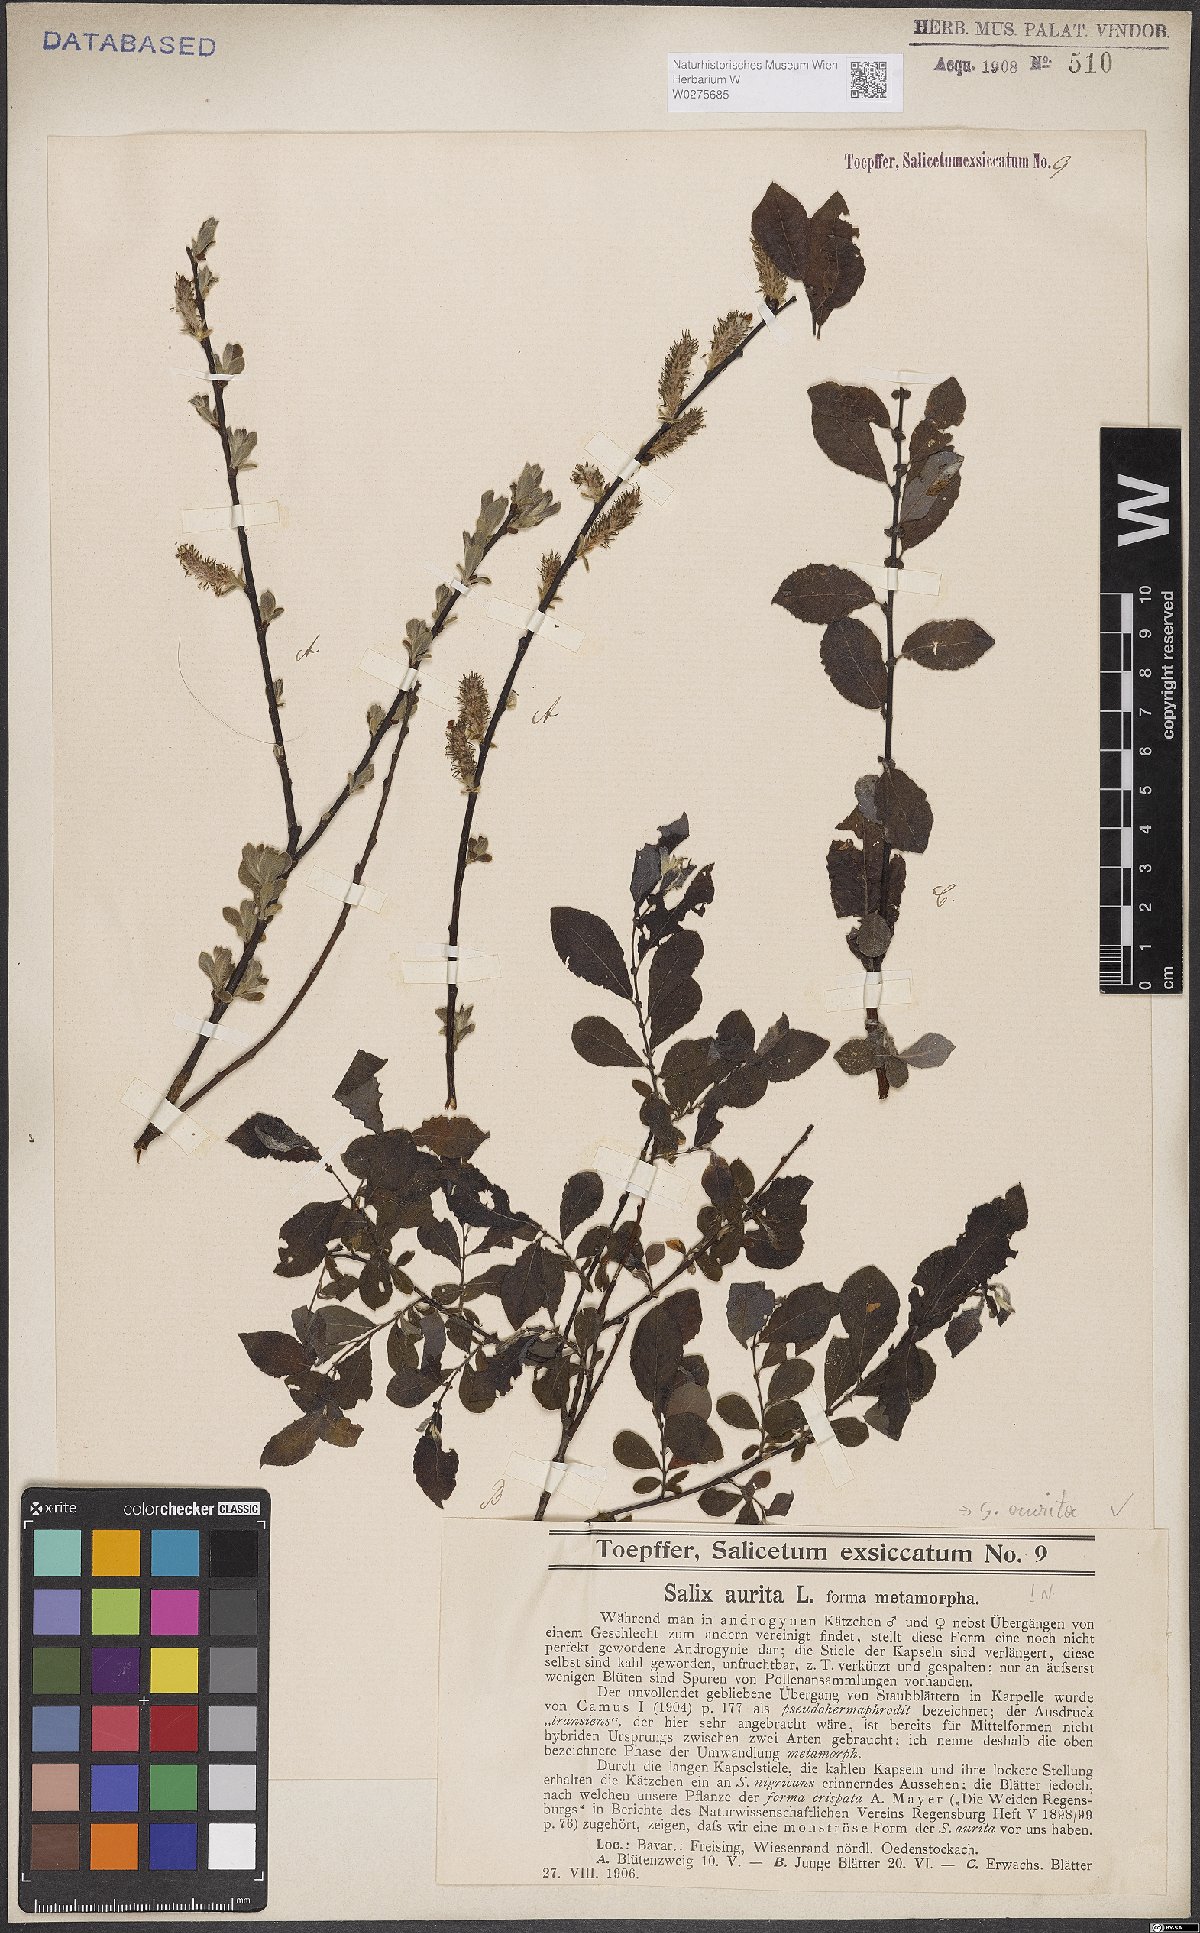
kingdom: Plantae
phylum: Tracheophyta
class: Magnoliopsida
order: Malpighiales
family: Salicaceae
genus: Salix
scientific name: Salix aurita
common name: Eared willow
